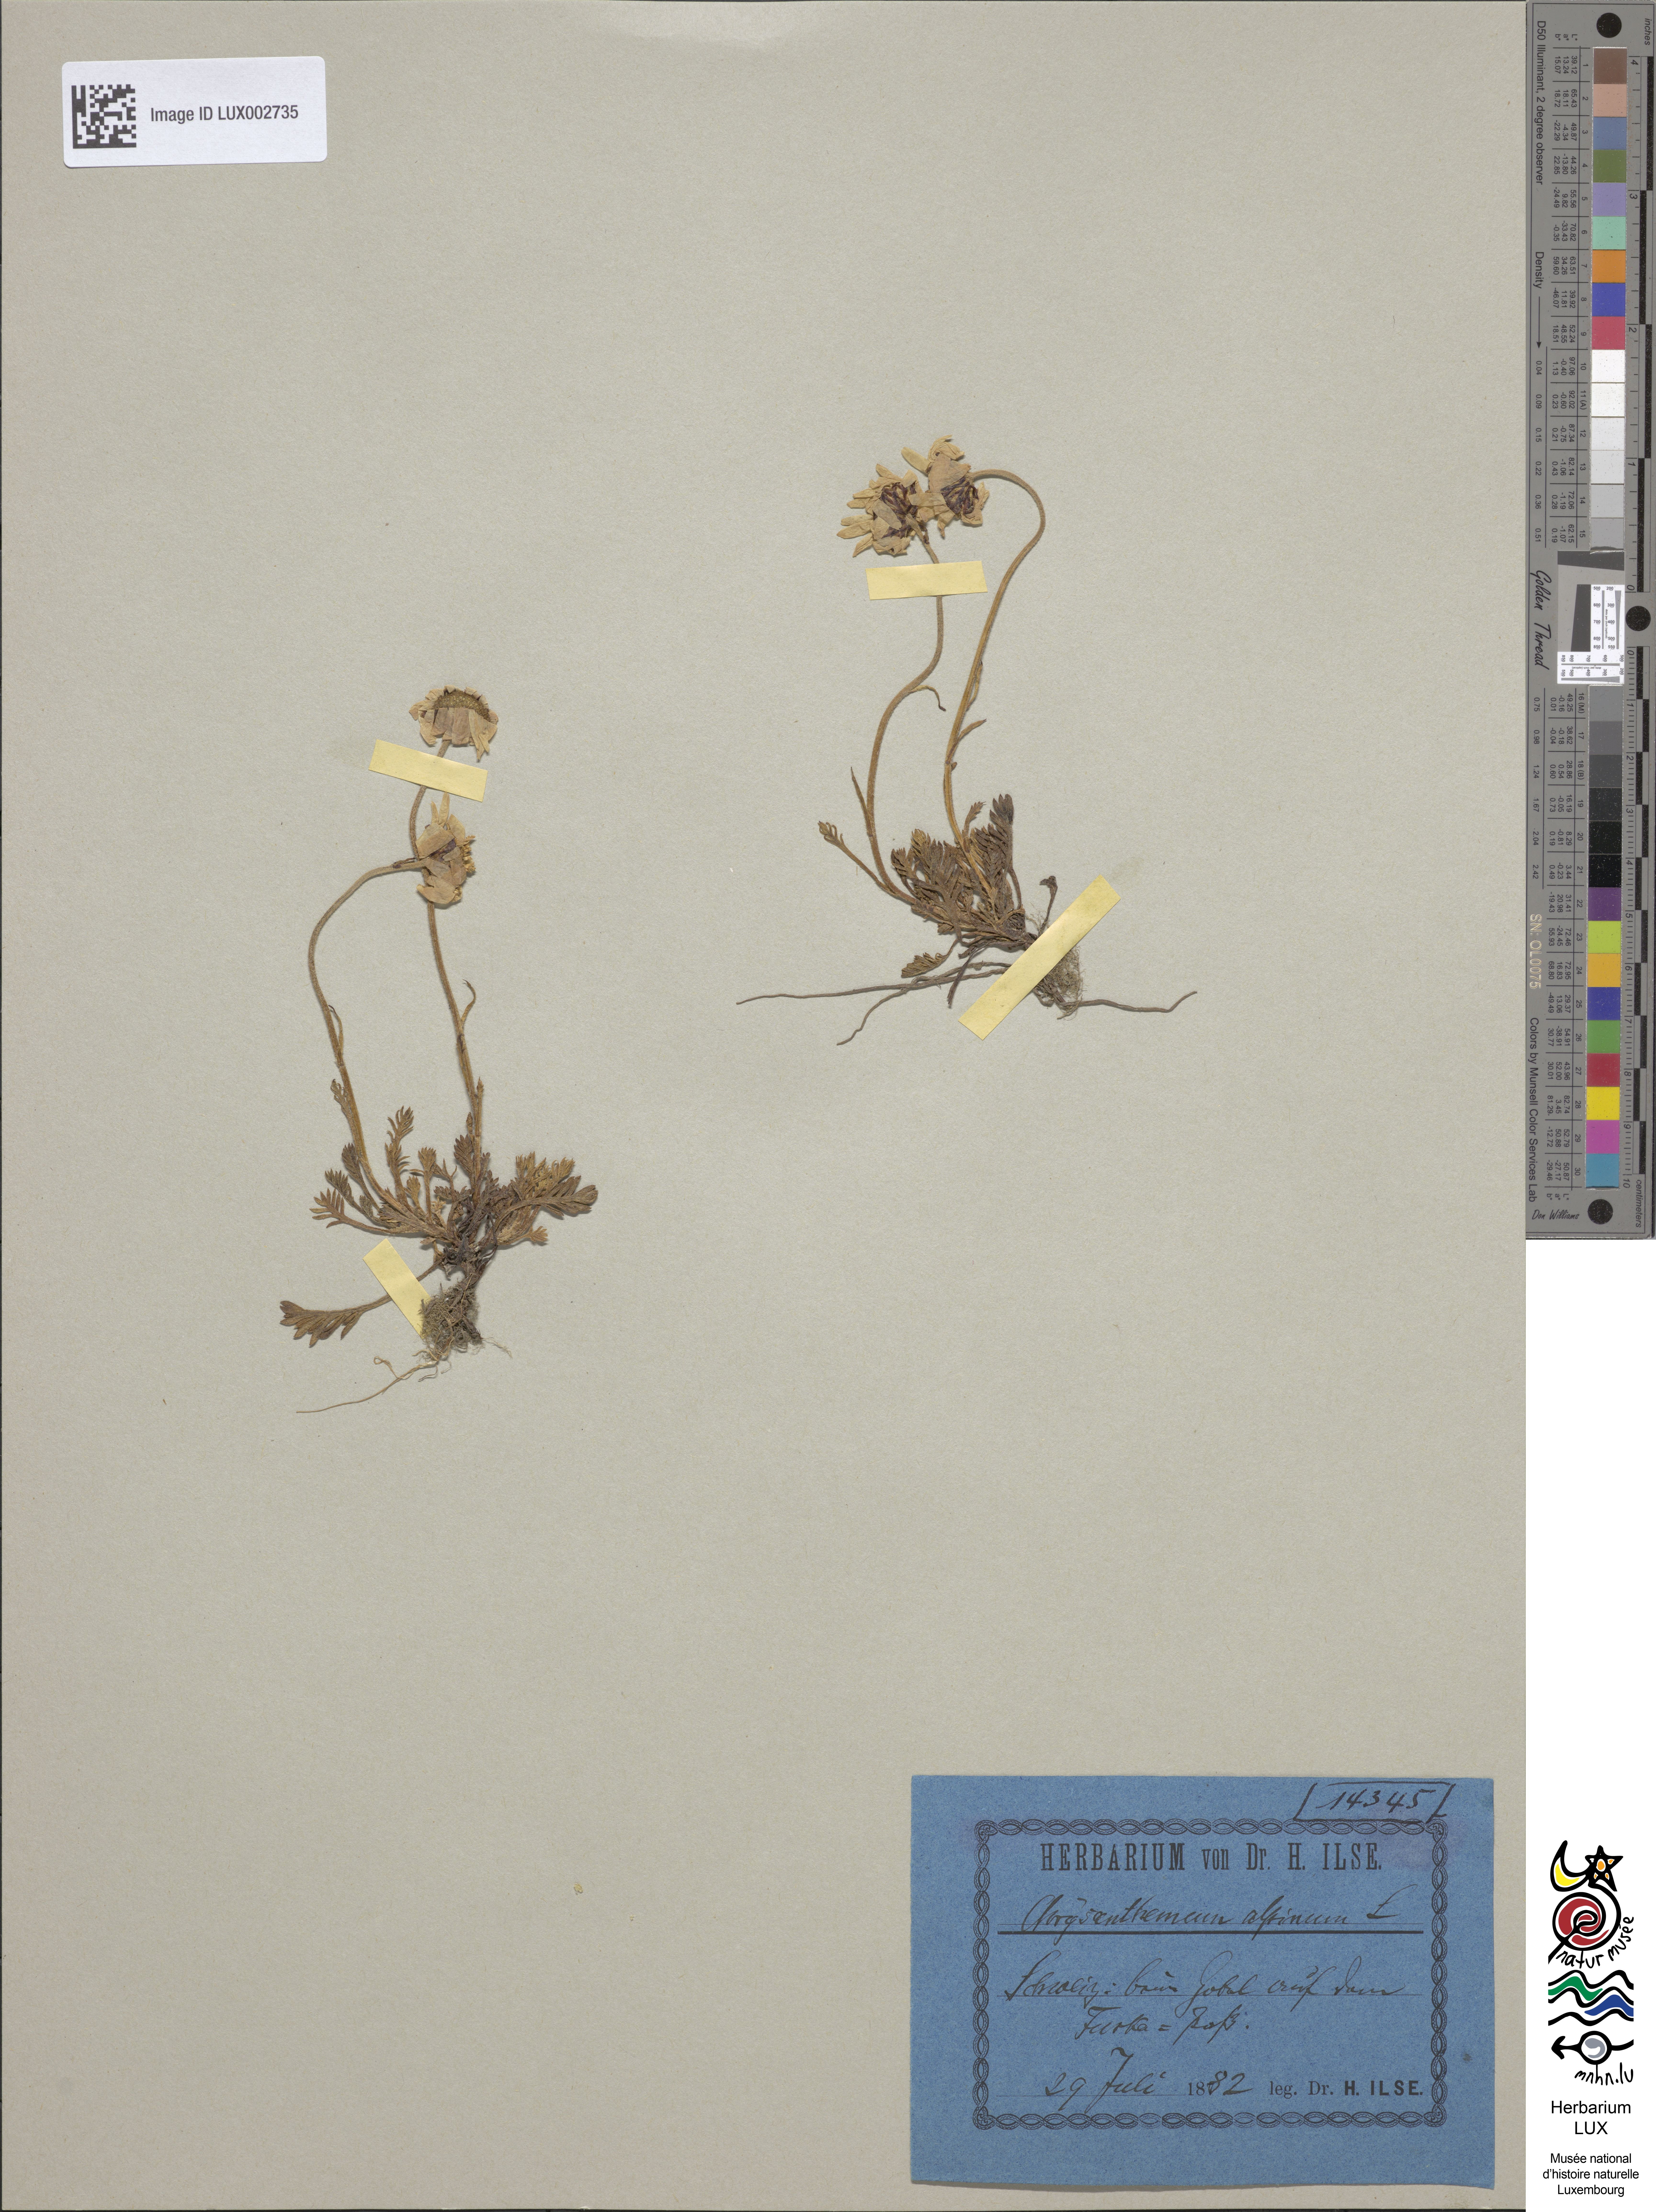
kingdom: Plantae
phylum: Tracheophyta
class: Magnoliopsida
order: Asterales
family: Asteraceae
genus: Leucanthemopsis
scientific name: Leucanthemopsis alpina
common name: Alpine moon daisy
